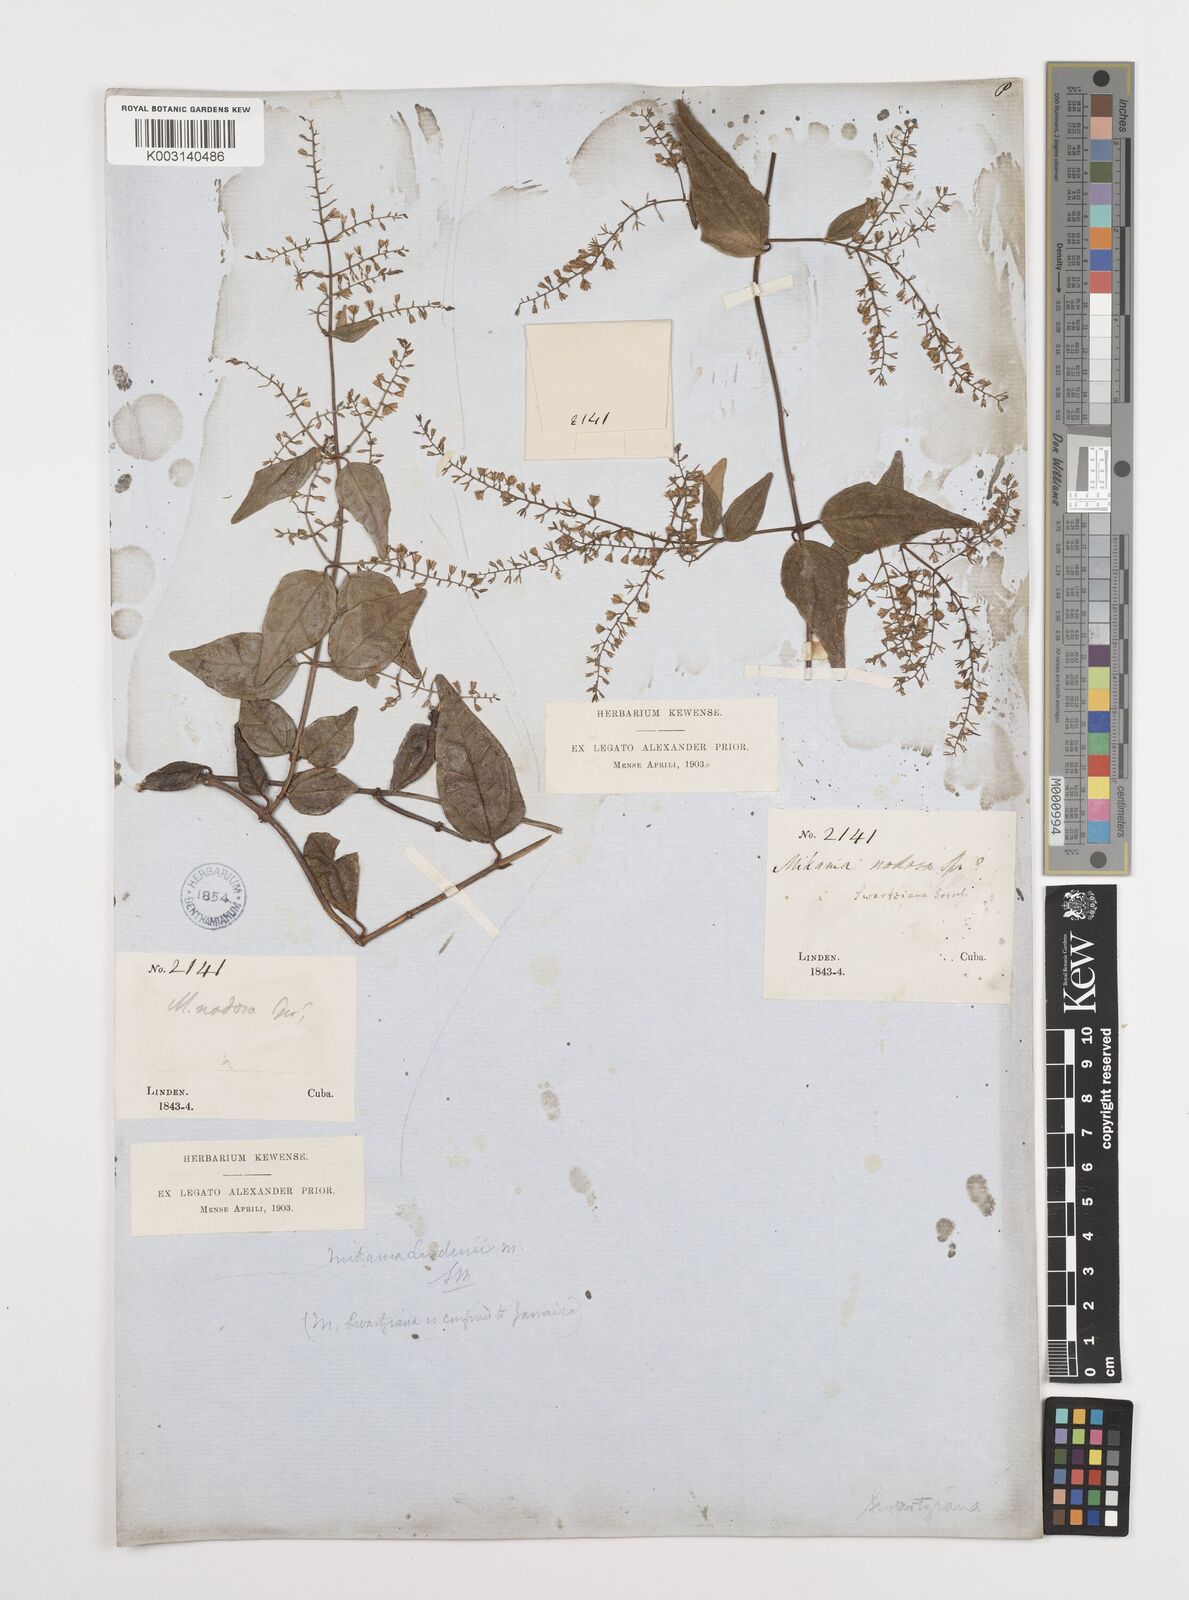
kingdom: Plantae
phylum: Tracheophyta
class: Magnoliopsida
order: Asterales
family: Asteraceae
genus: Mikania
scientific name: Mikania hioramii
